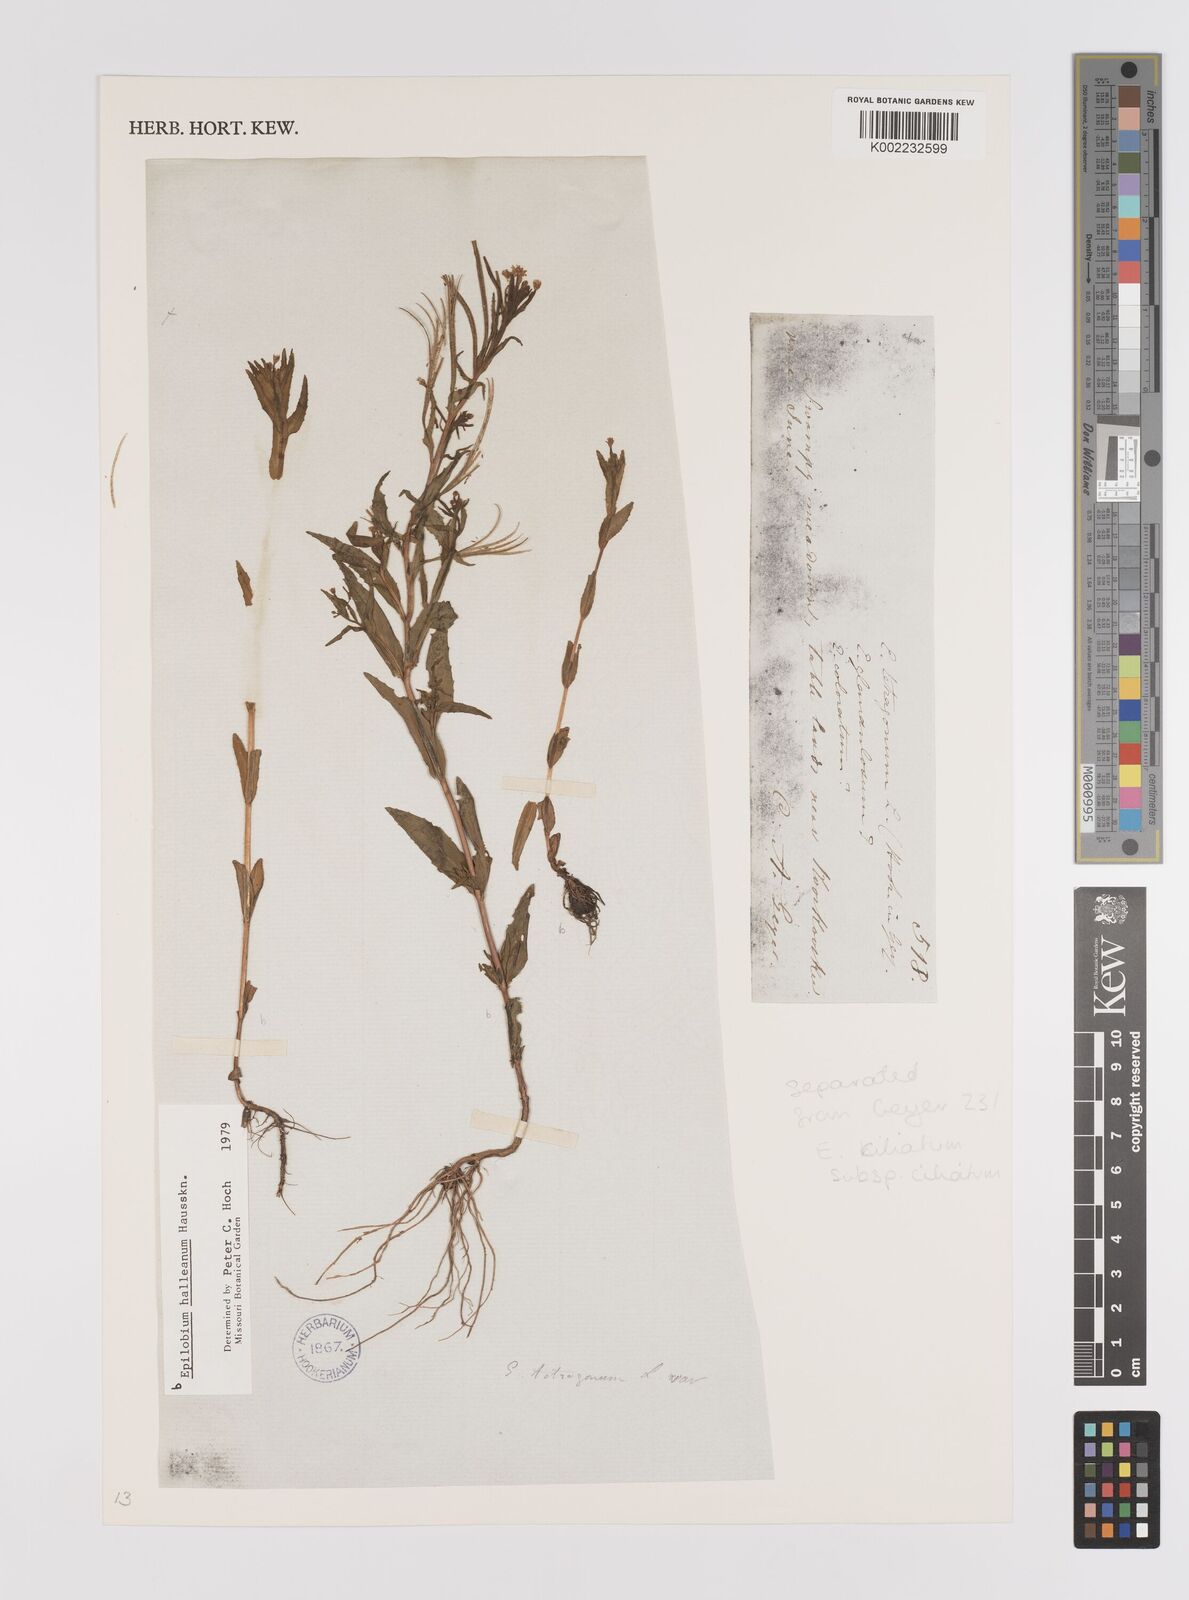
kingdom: Plantae
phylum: Tracheophyta
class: Magnoliopsida
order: Myrtales
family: Onagraceae
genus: Epilobium
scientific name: Epilobium hallianum
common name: Hall's willowherb
